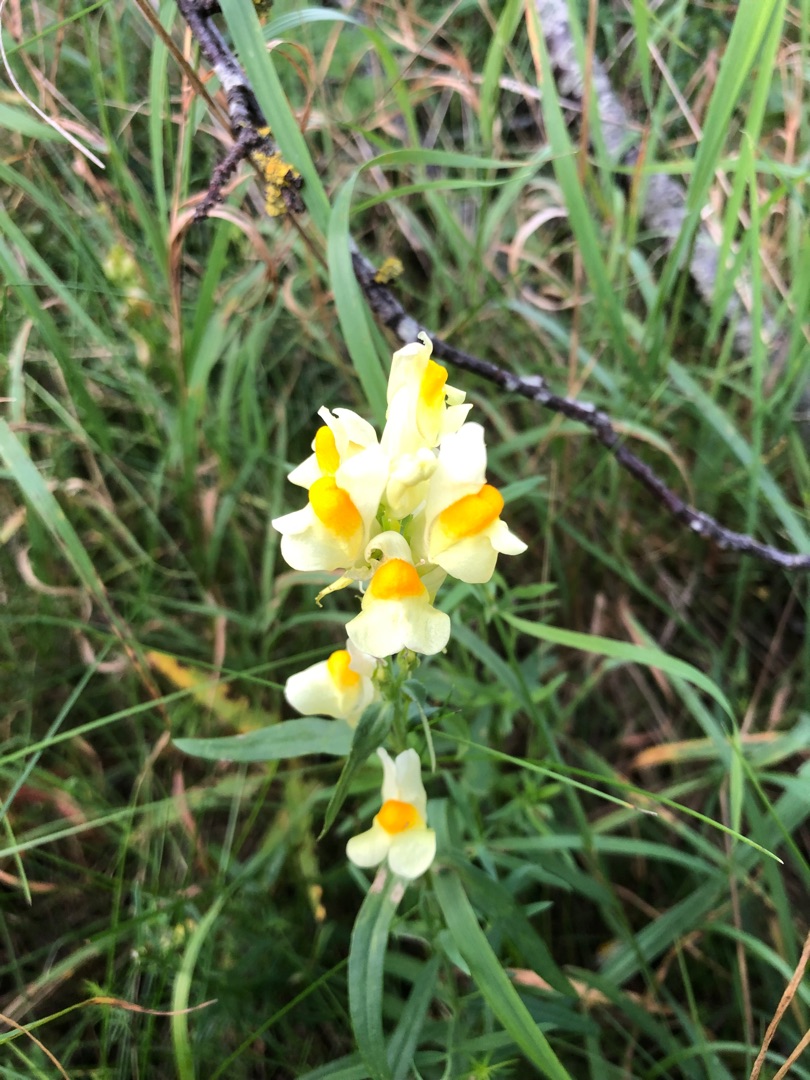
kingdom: Plantae
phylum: Tracheophyta
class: Magnoliopsida
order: Lamiales
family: Plantaginaceae
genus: Linaria
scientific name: Linaria vulgaris
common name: Almindelig torskemund
